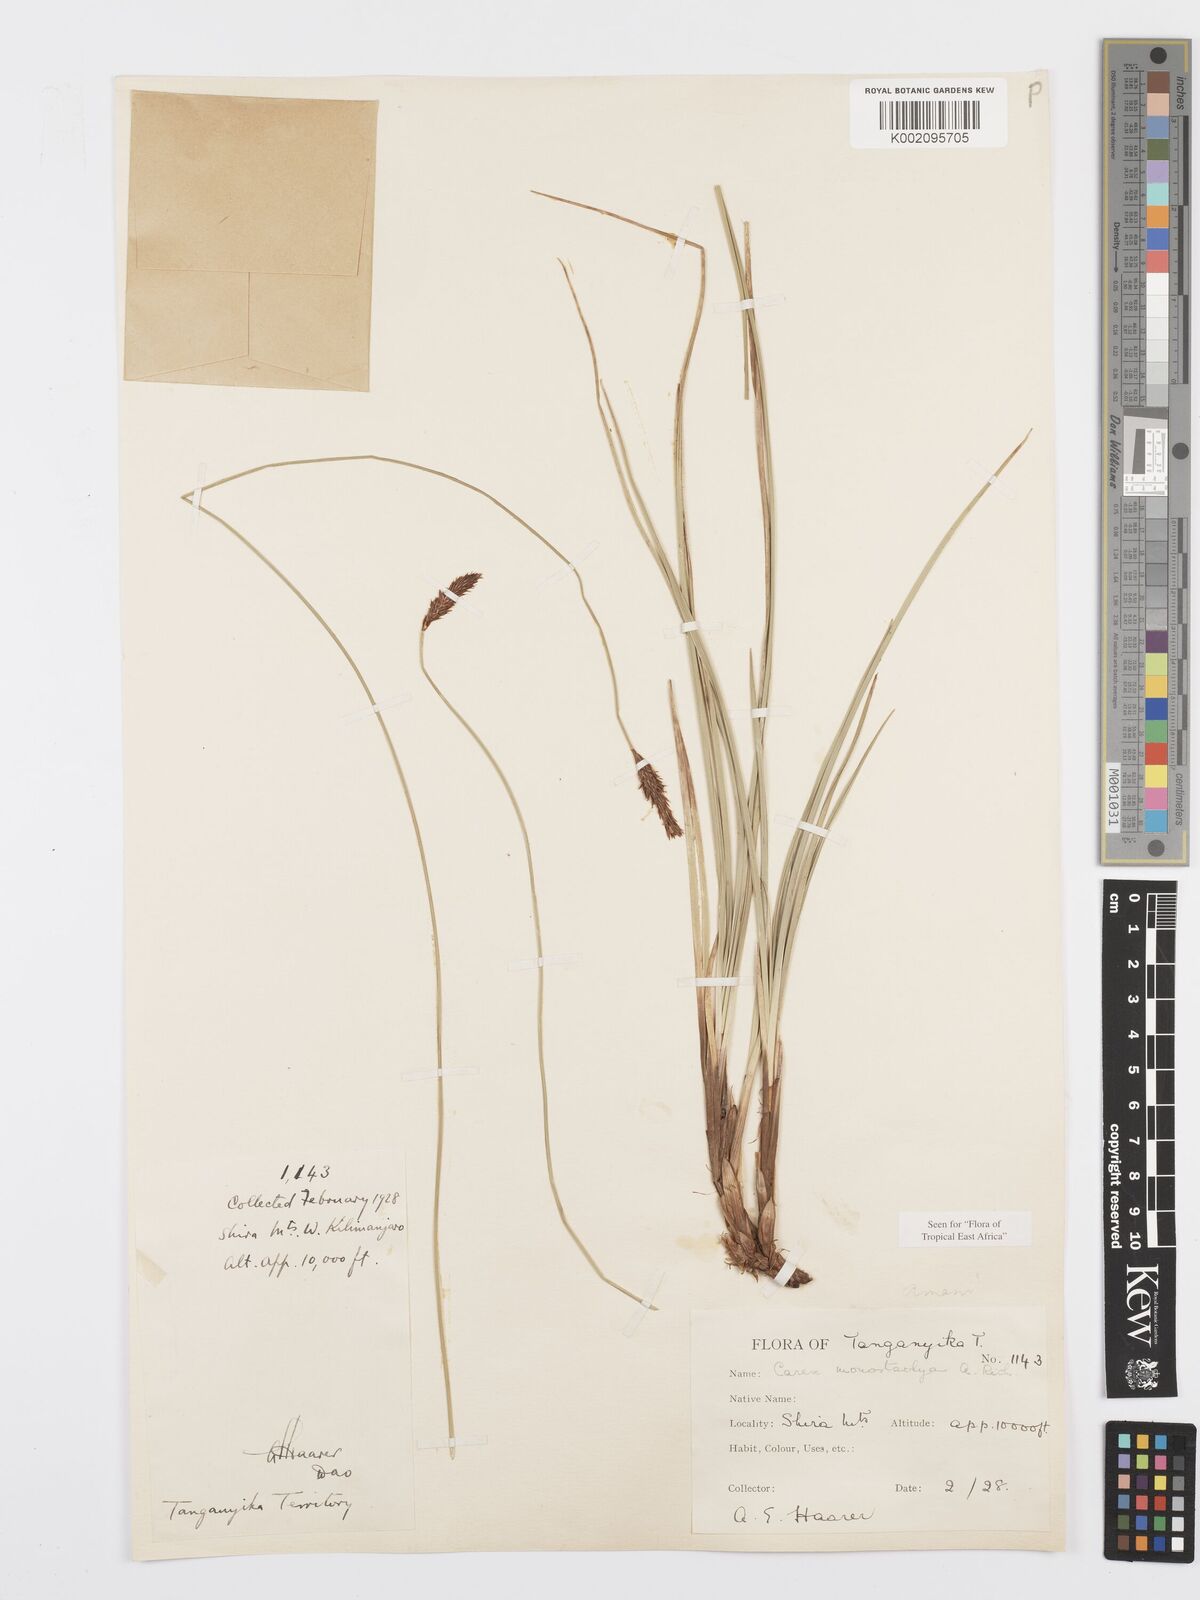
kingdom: Plantae
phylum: Tracheophyta
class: Liliopsida
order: Poales
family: Cyperaceae
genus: Carex
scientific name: Carex monostachya
